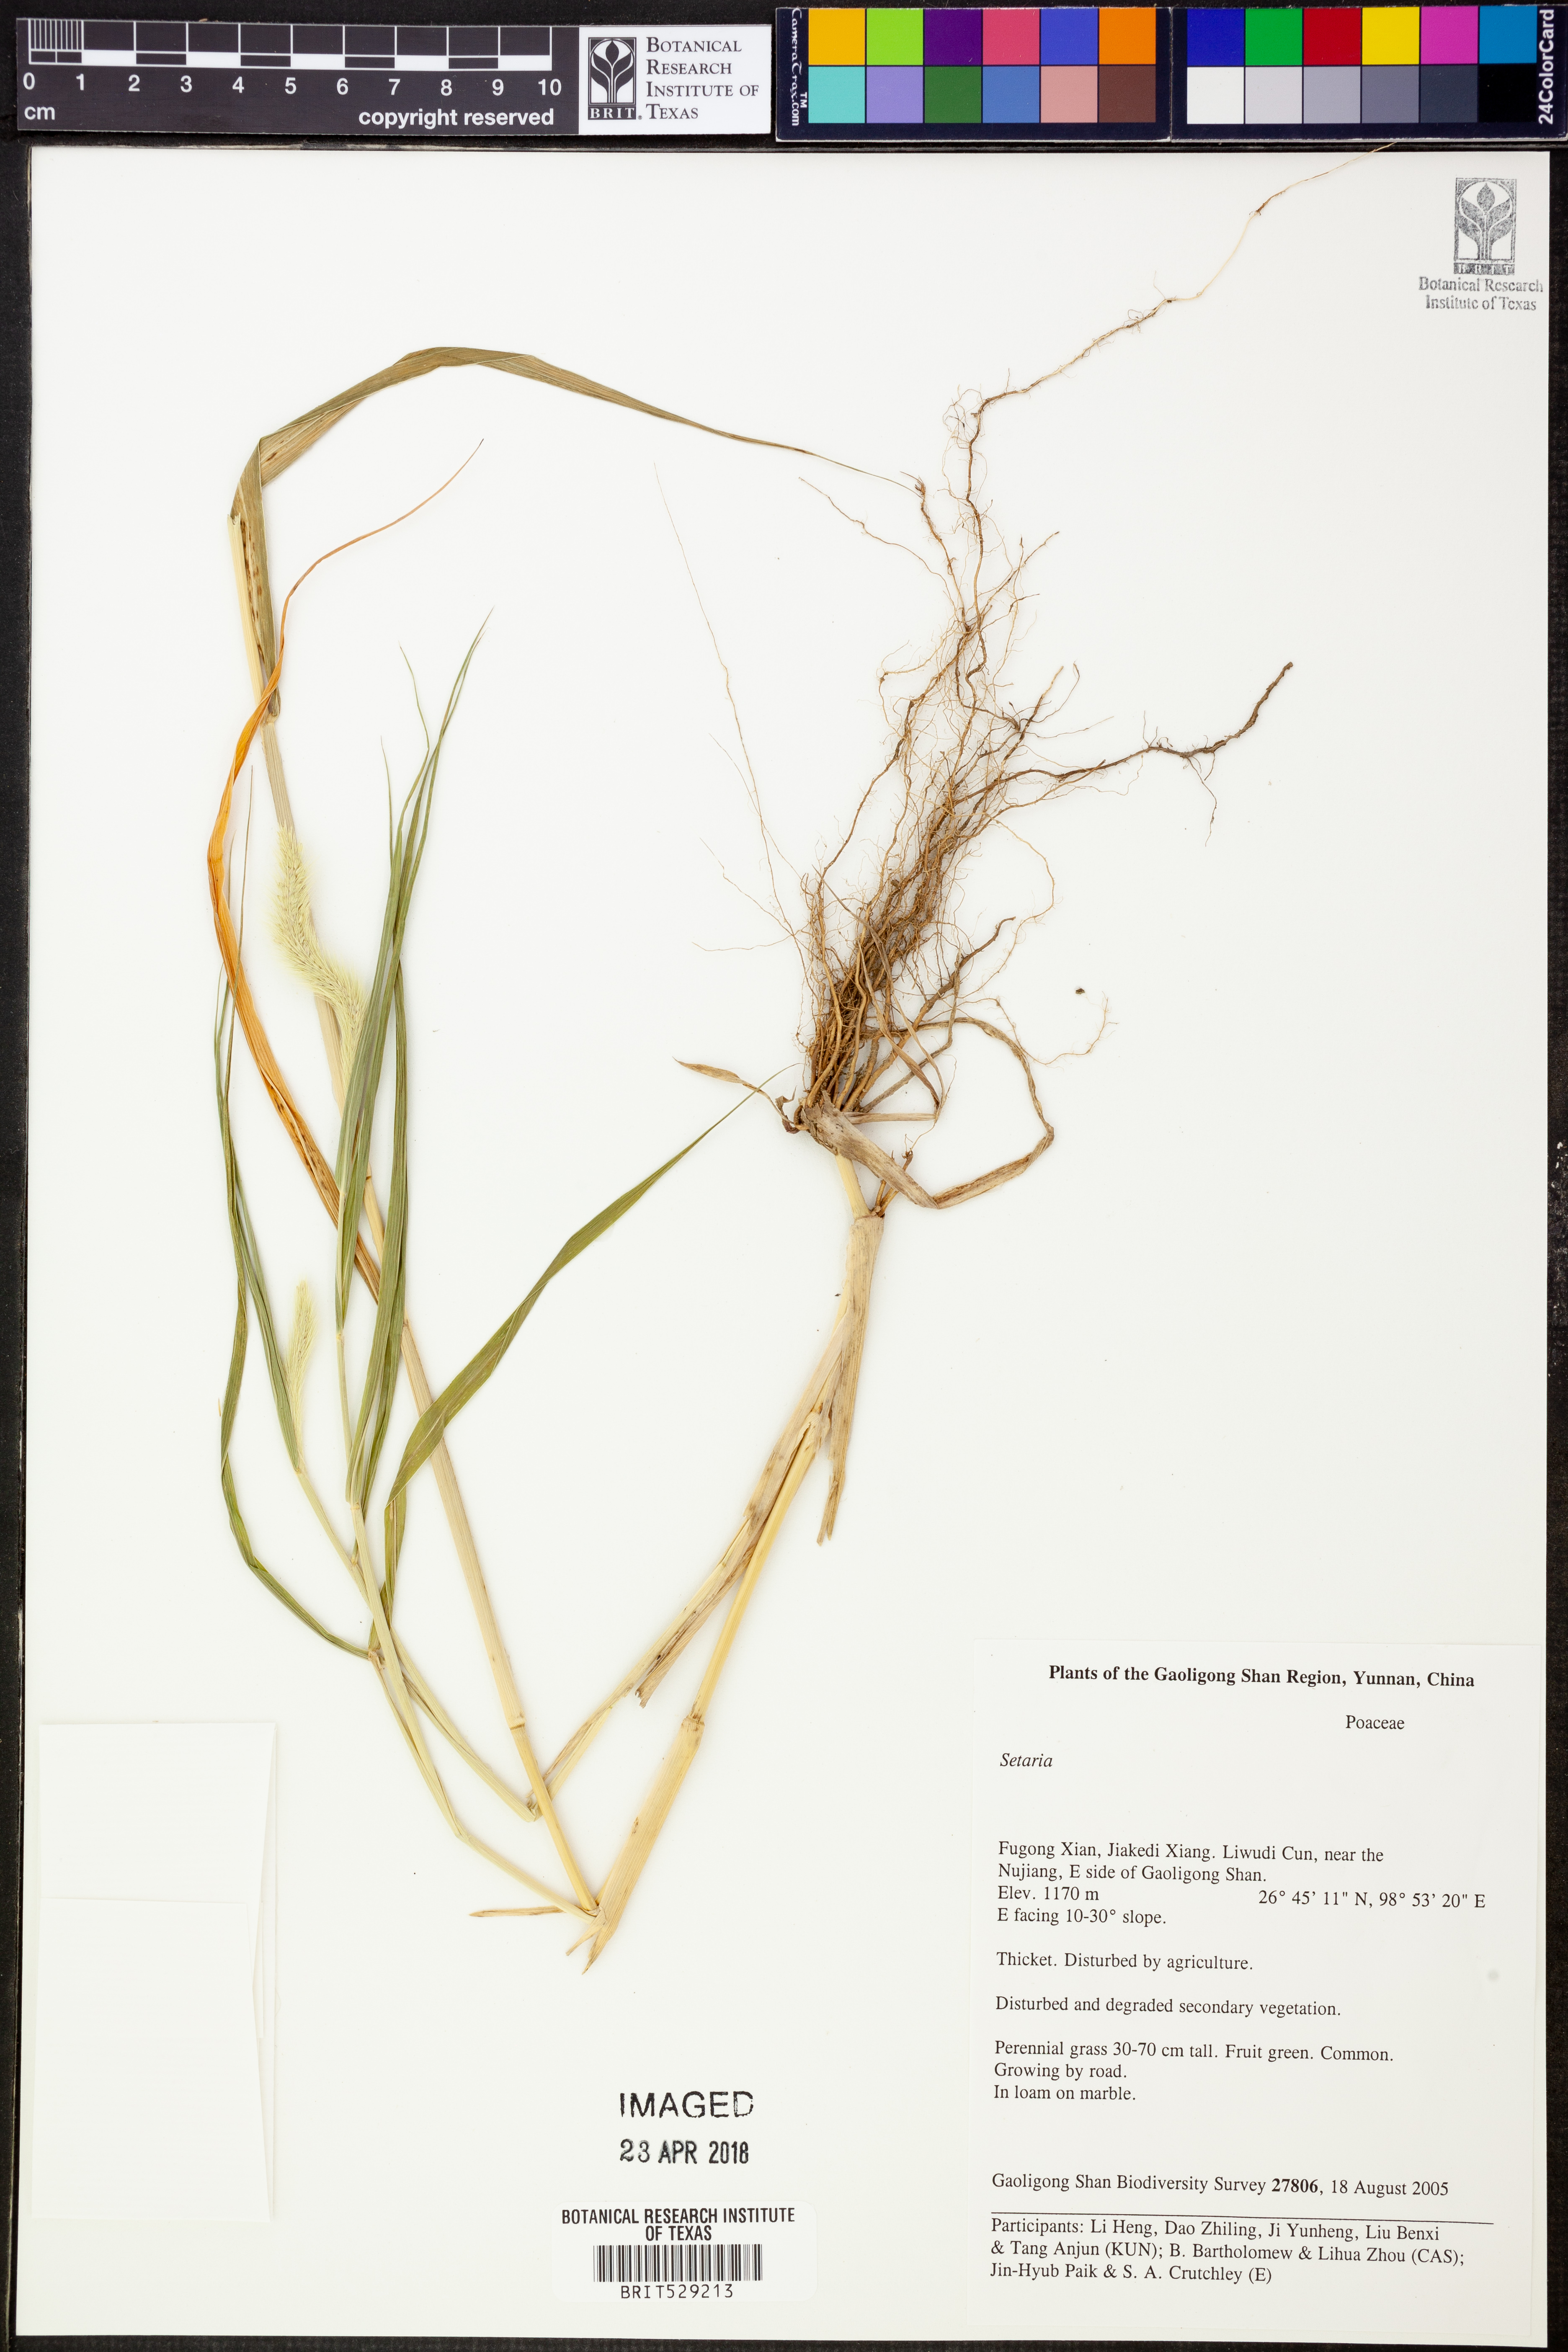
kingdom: Plantae
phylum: Tracheophyta
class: Liliopsida
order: Poales
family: Poaceae
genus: Setaria
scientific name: Setaria
